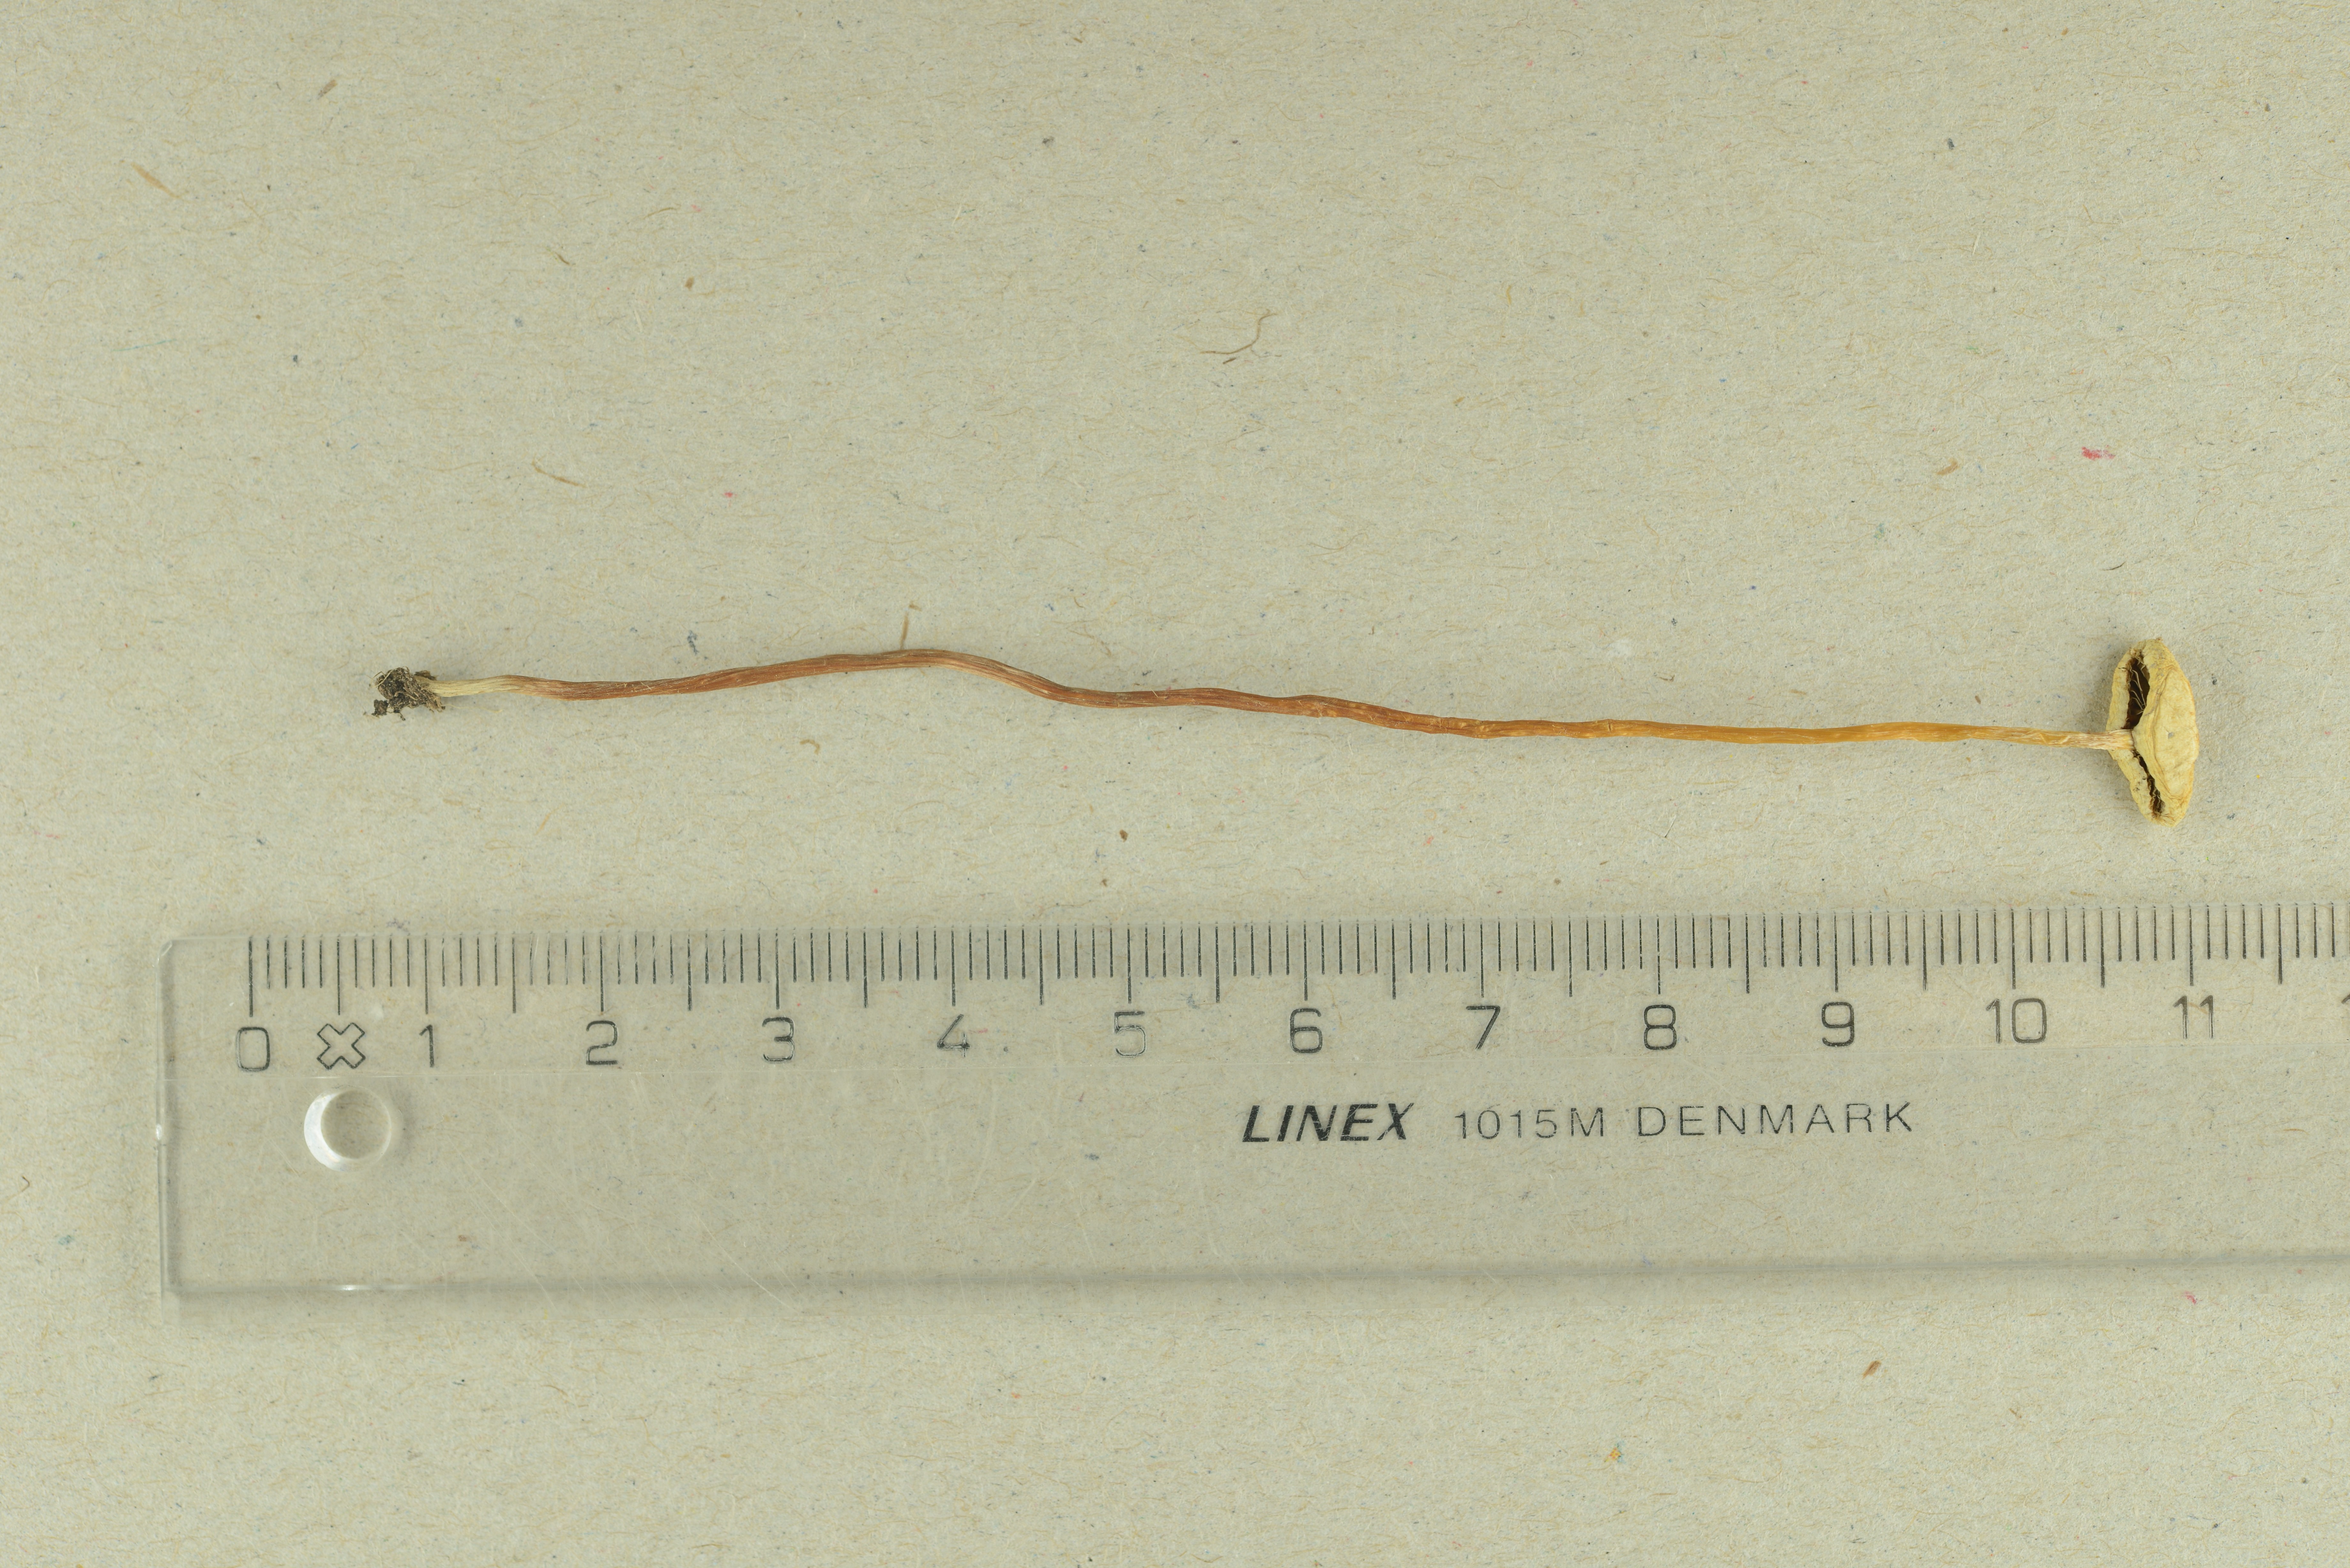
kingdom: Fungi
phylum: Basidiomycota
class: Agaricomycetes
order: Agaricales
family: Strophariaceae
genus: Hypholoma
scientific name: Hypholoma elongatum
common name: Sphagnum brownie
